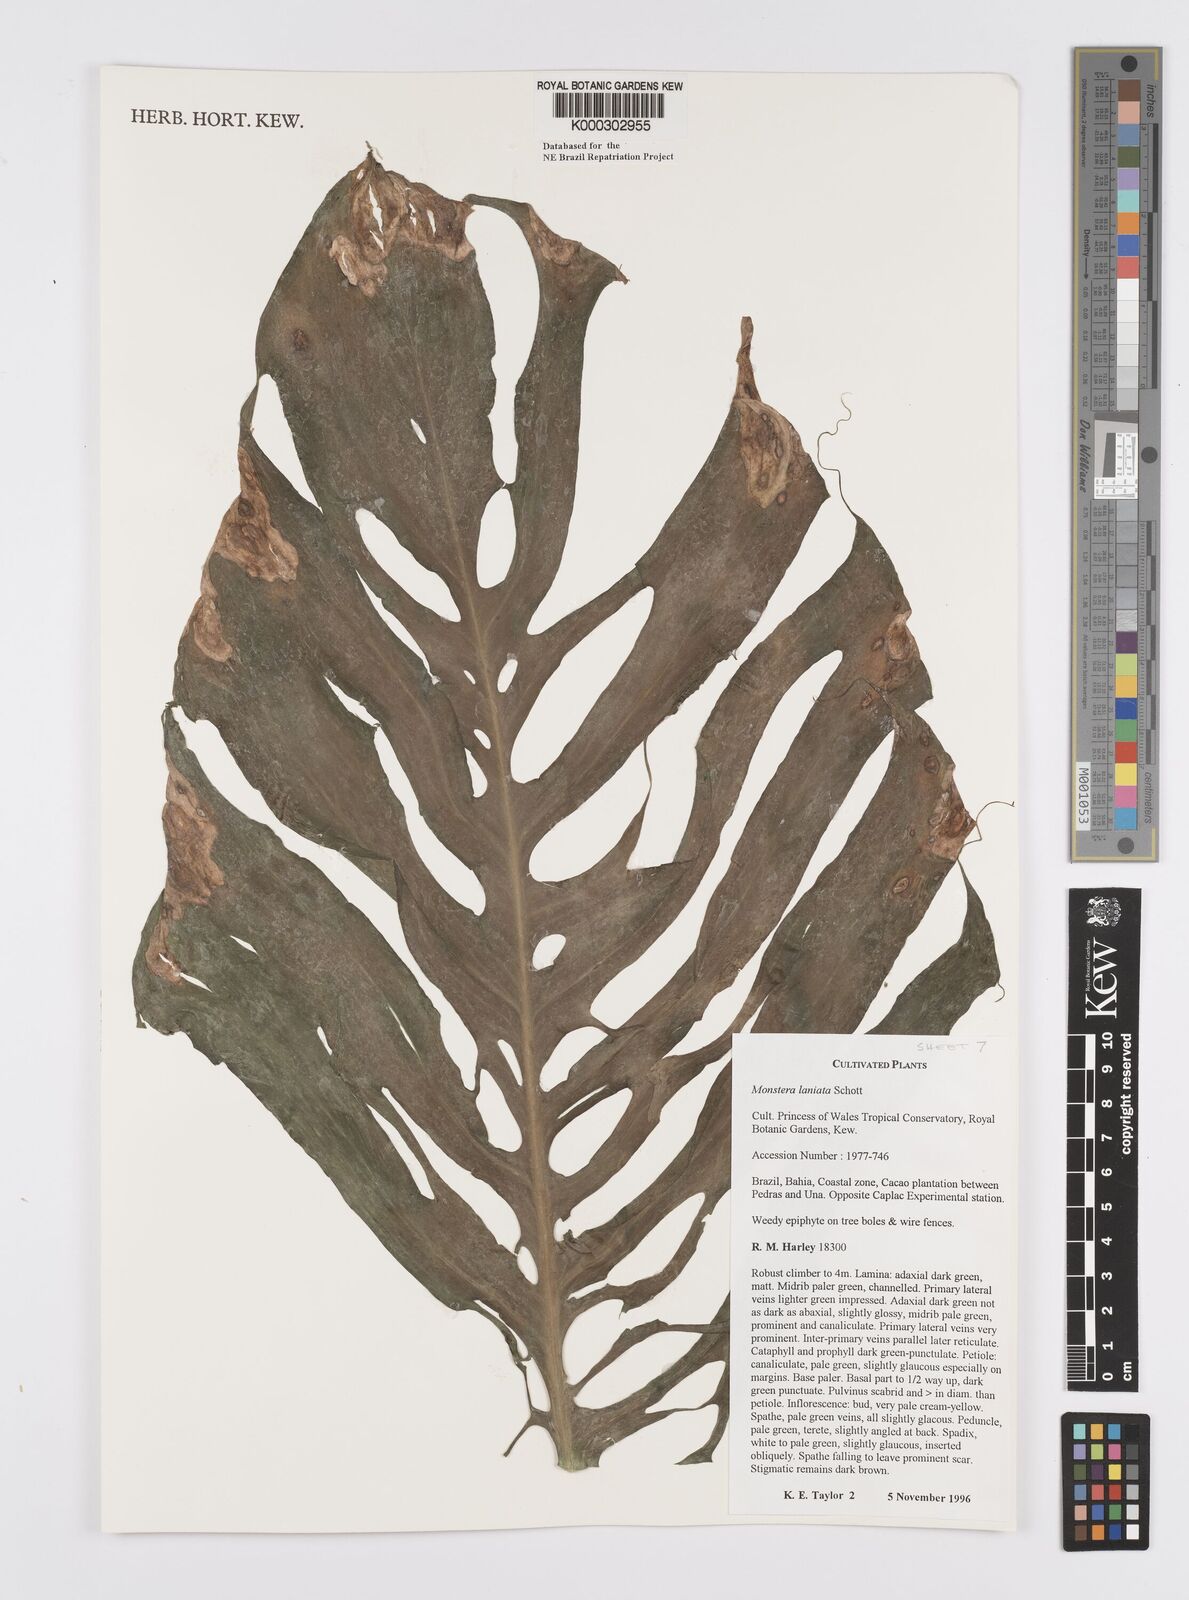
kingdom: Plantae
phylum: Tracheophyta
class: Liliopsida
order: Alismatales
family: Araceae
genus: Monstera
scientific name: Monstera adansonii
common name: Tarovine
